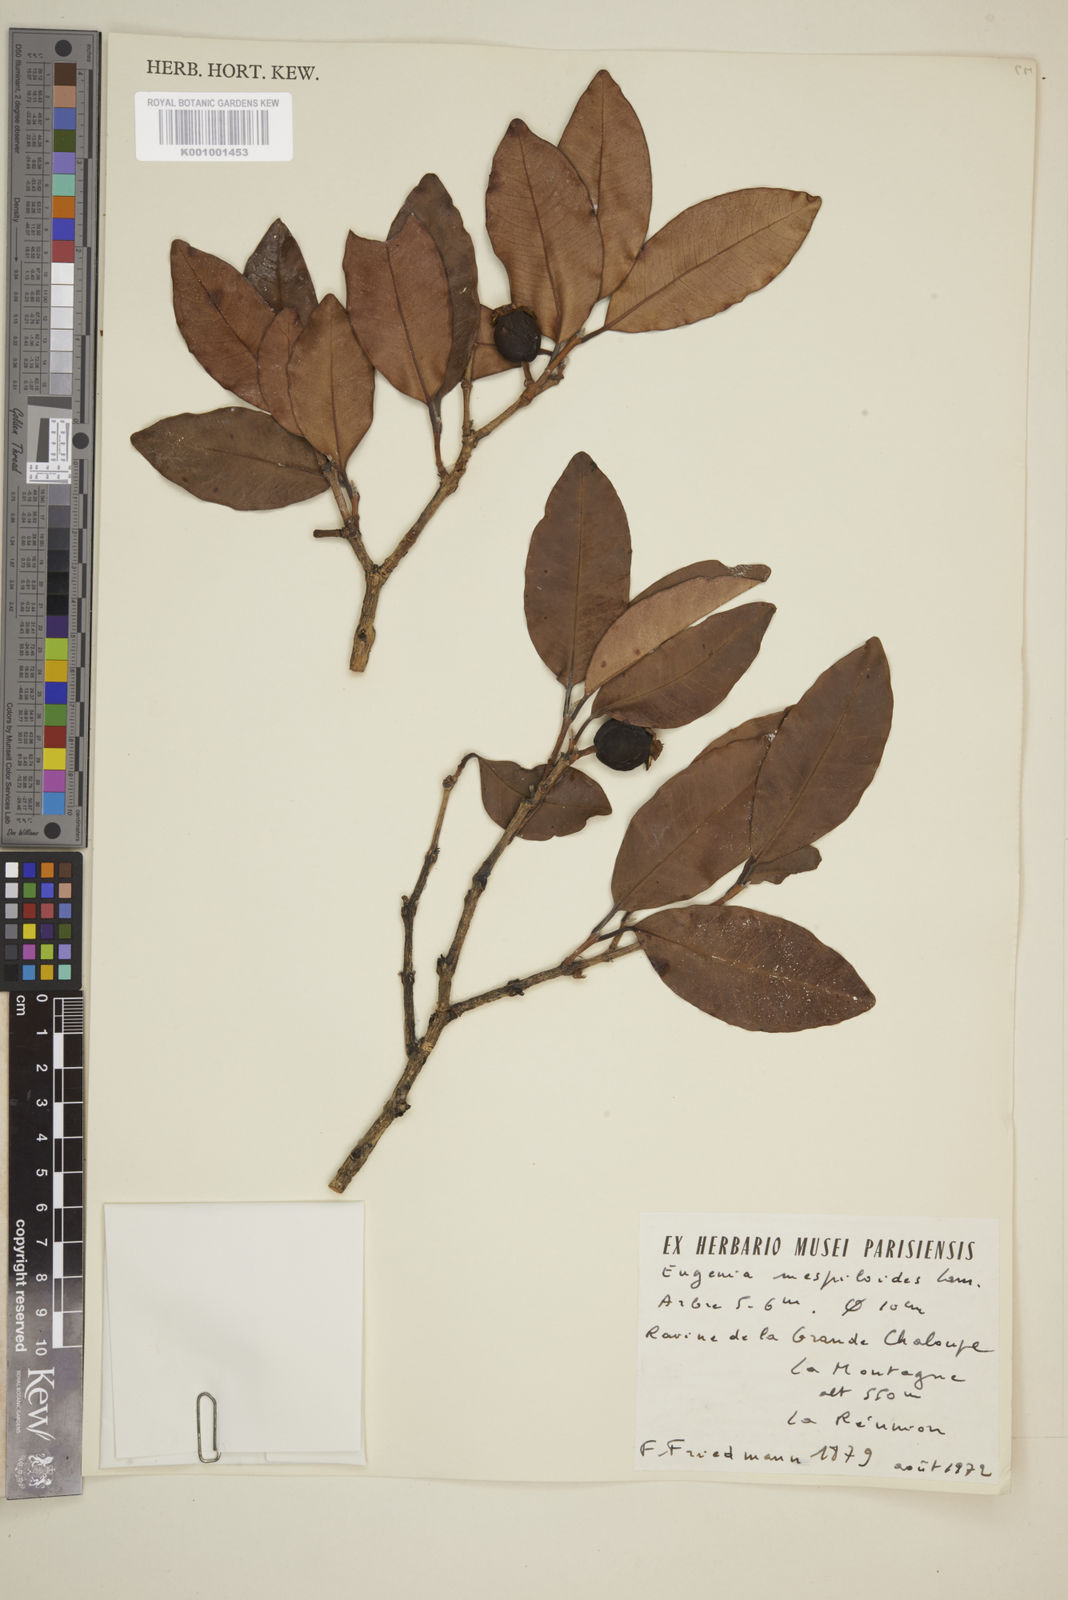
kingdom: Plantae
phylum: Tracheophyta
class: Magnoliopsida
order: Myrtales
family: Myrtaceae
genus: Eugenia
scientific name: Eugenia mespiloides
